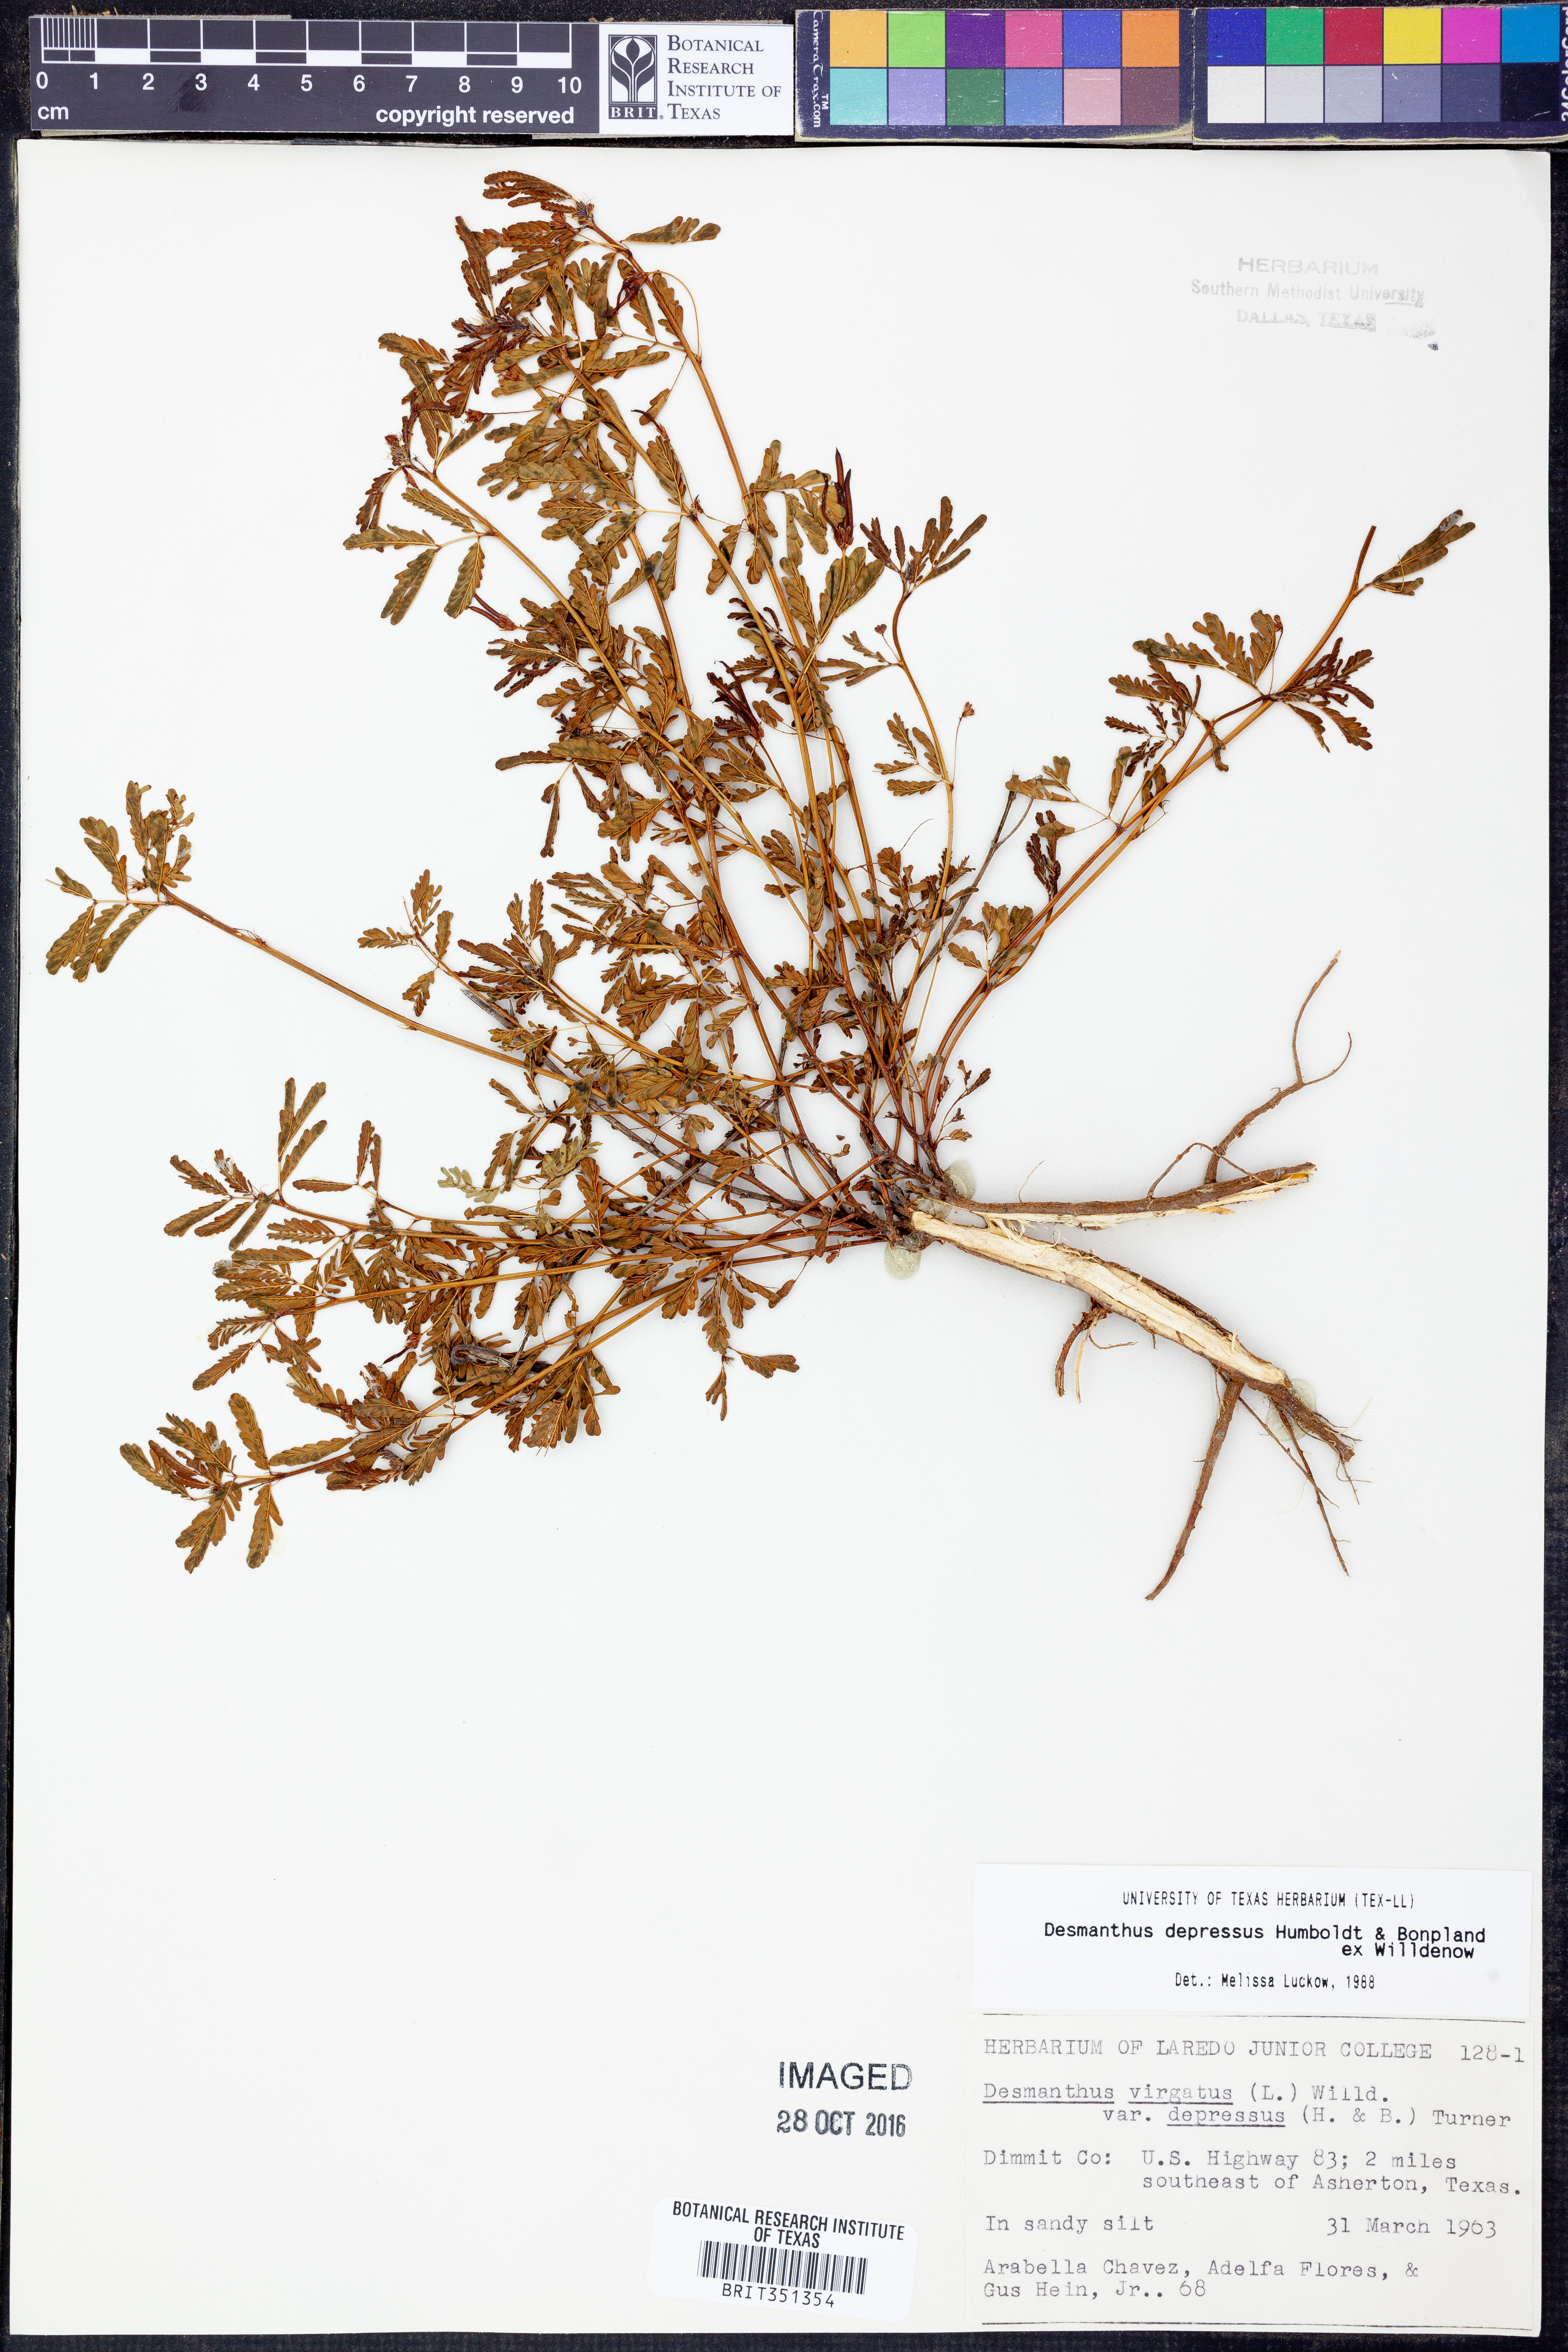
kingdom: Plantae
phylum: Tracheophyta
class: Magnoliopsida
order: Fabales
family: Fabaceae
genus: Desmanthus
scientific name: Desmanthus virgatus
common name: Wild tantan
